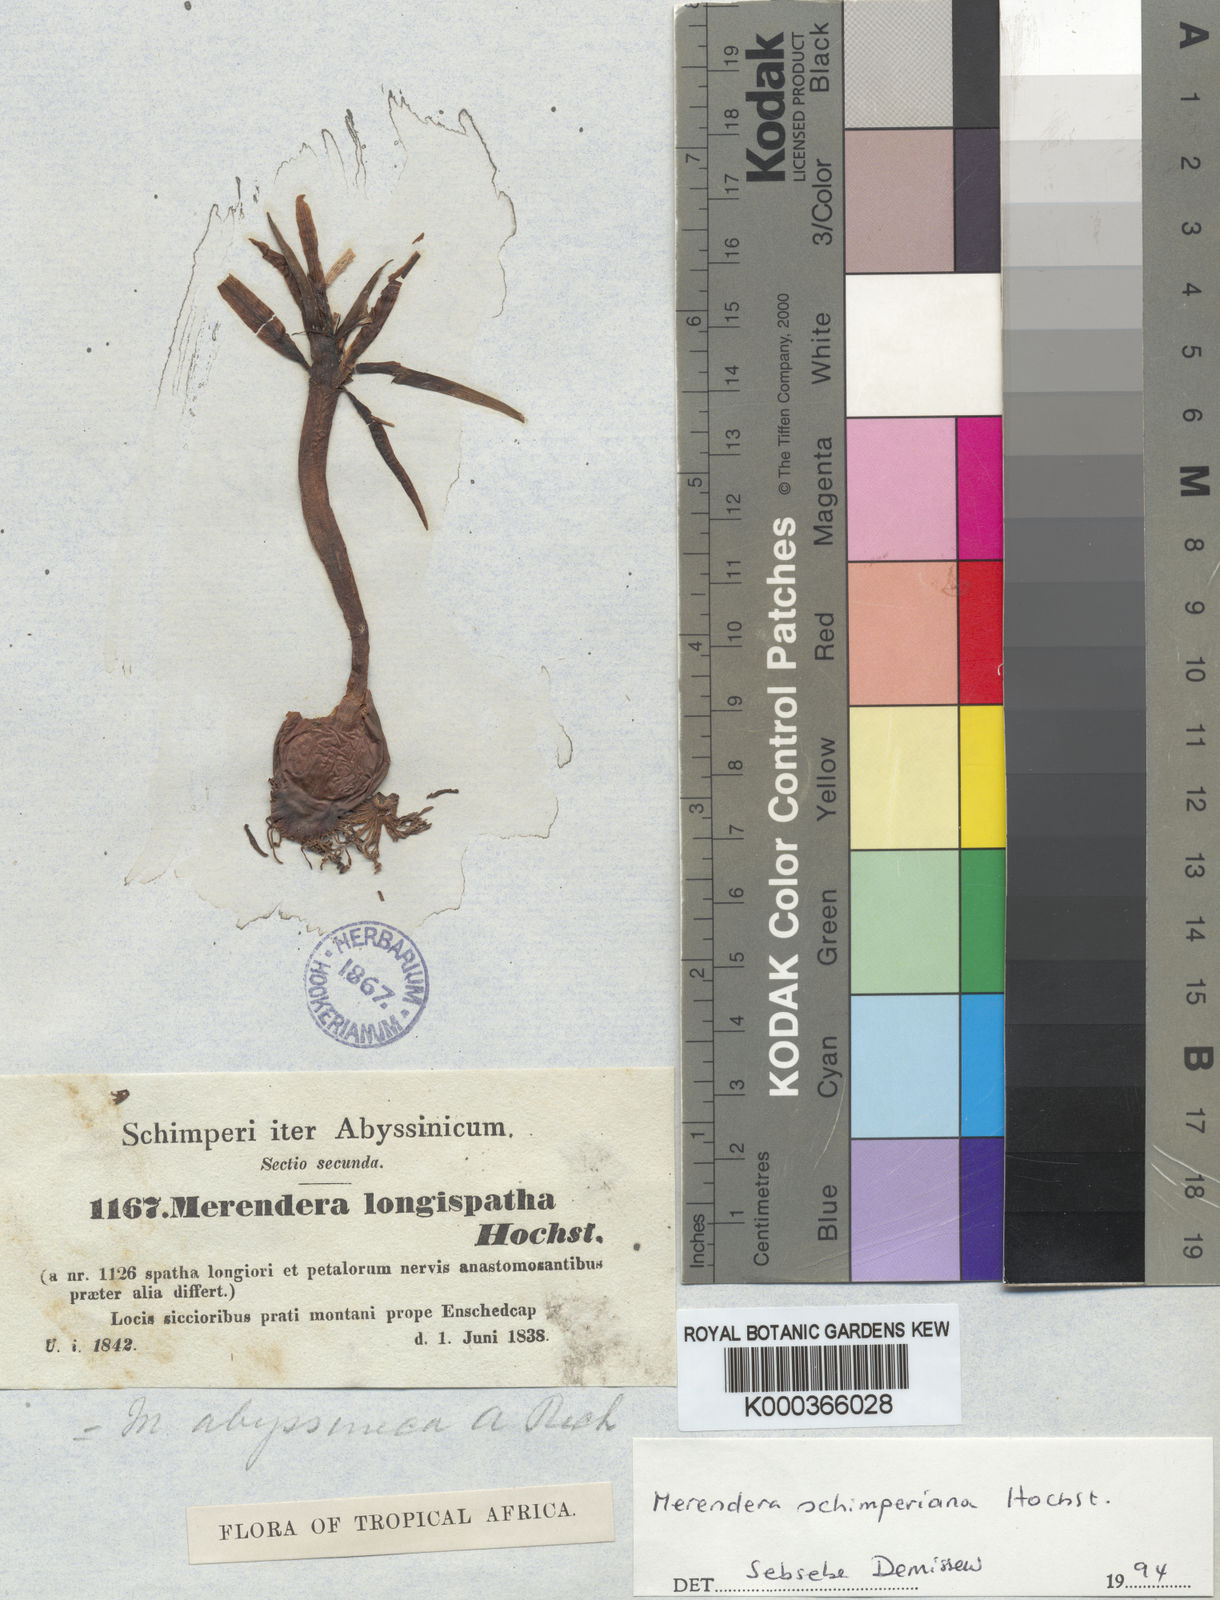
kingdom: Plantae
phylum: Tracheophyta
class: Liliopsida
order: Liliales
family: Colchicaceae
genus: Colchicum
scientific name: Colchicum
